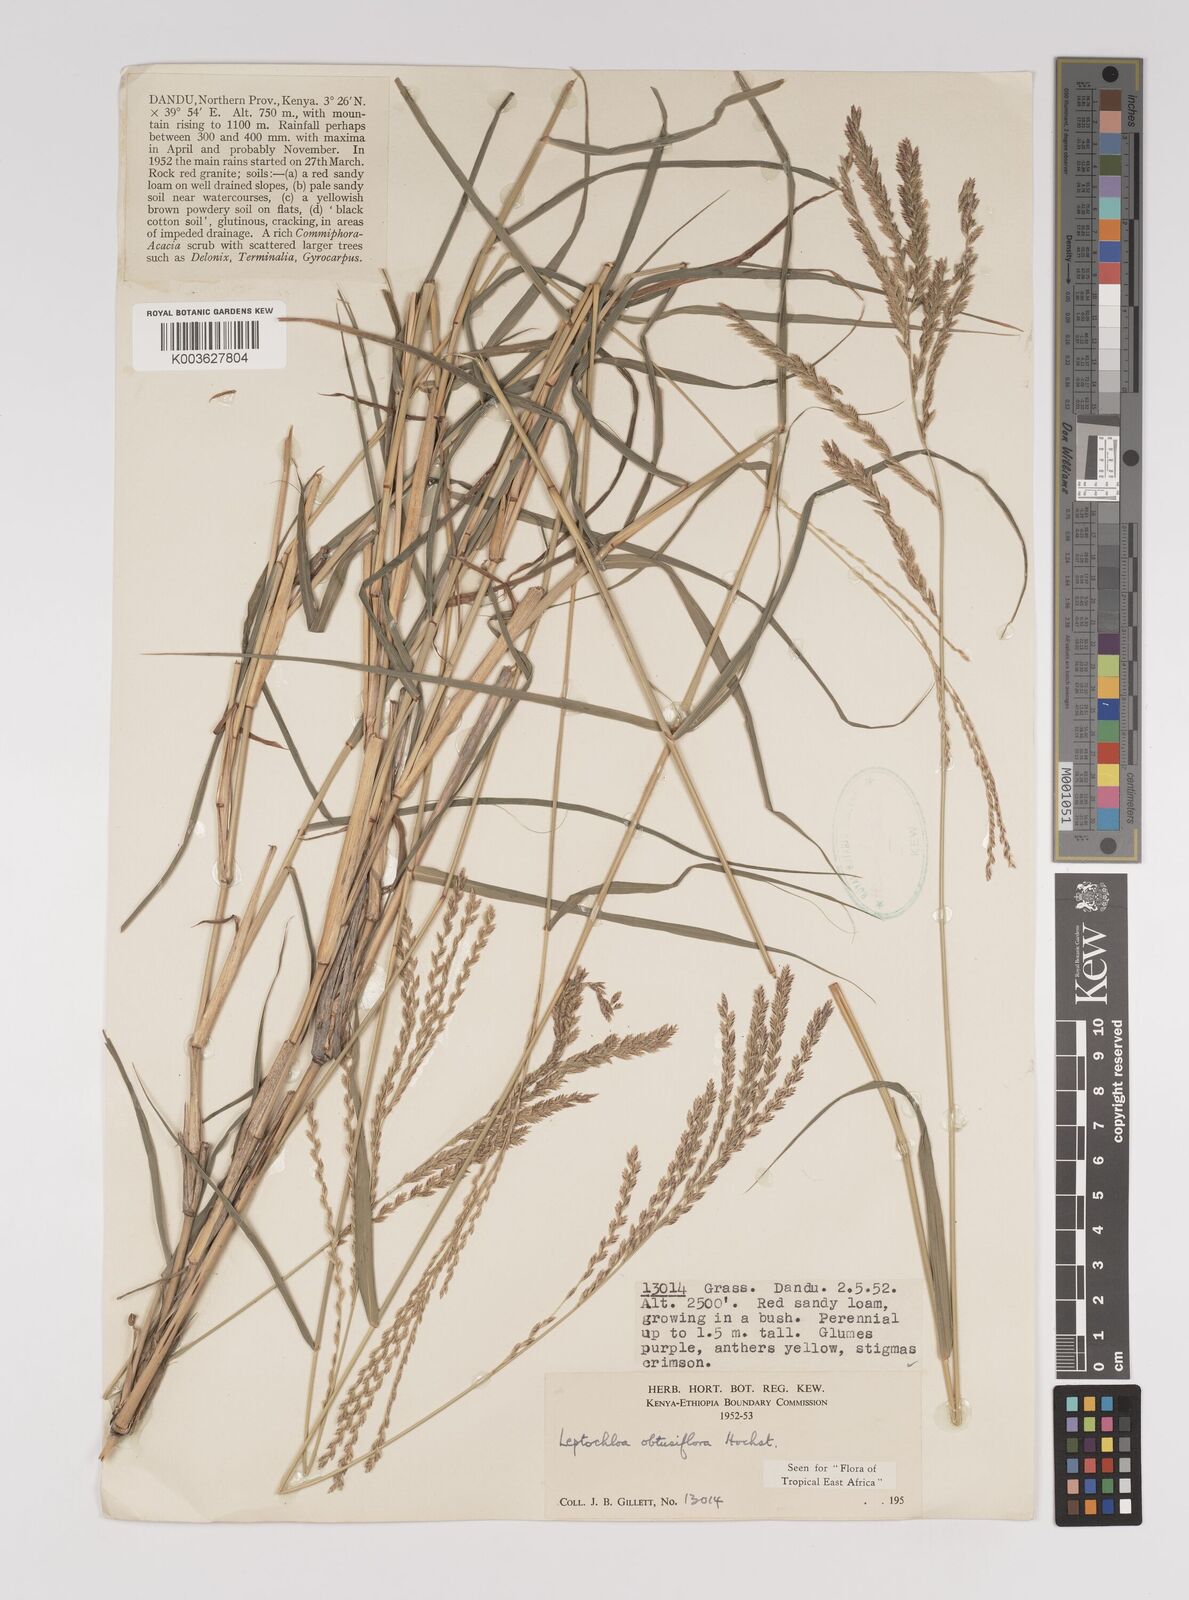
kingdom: Plantae
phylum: Tracheophyta
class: Liliopsida
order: Poales
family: Poaceae
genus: Disakisperma
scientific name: Disakisperma obtusiflorum
